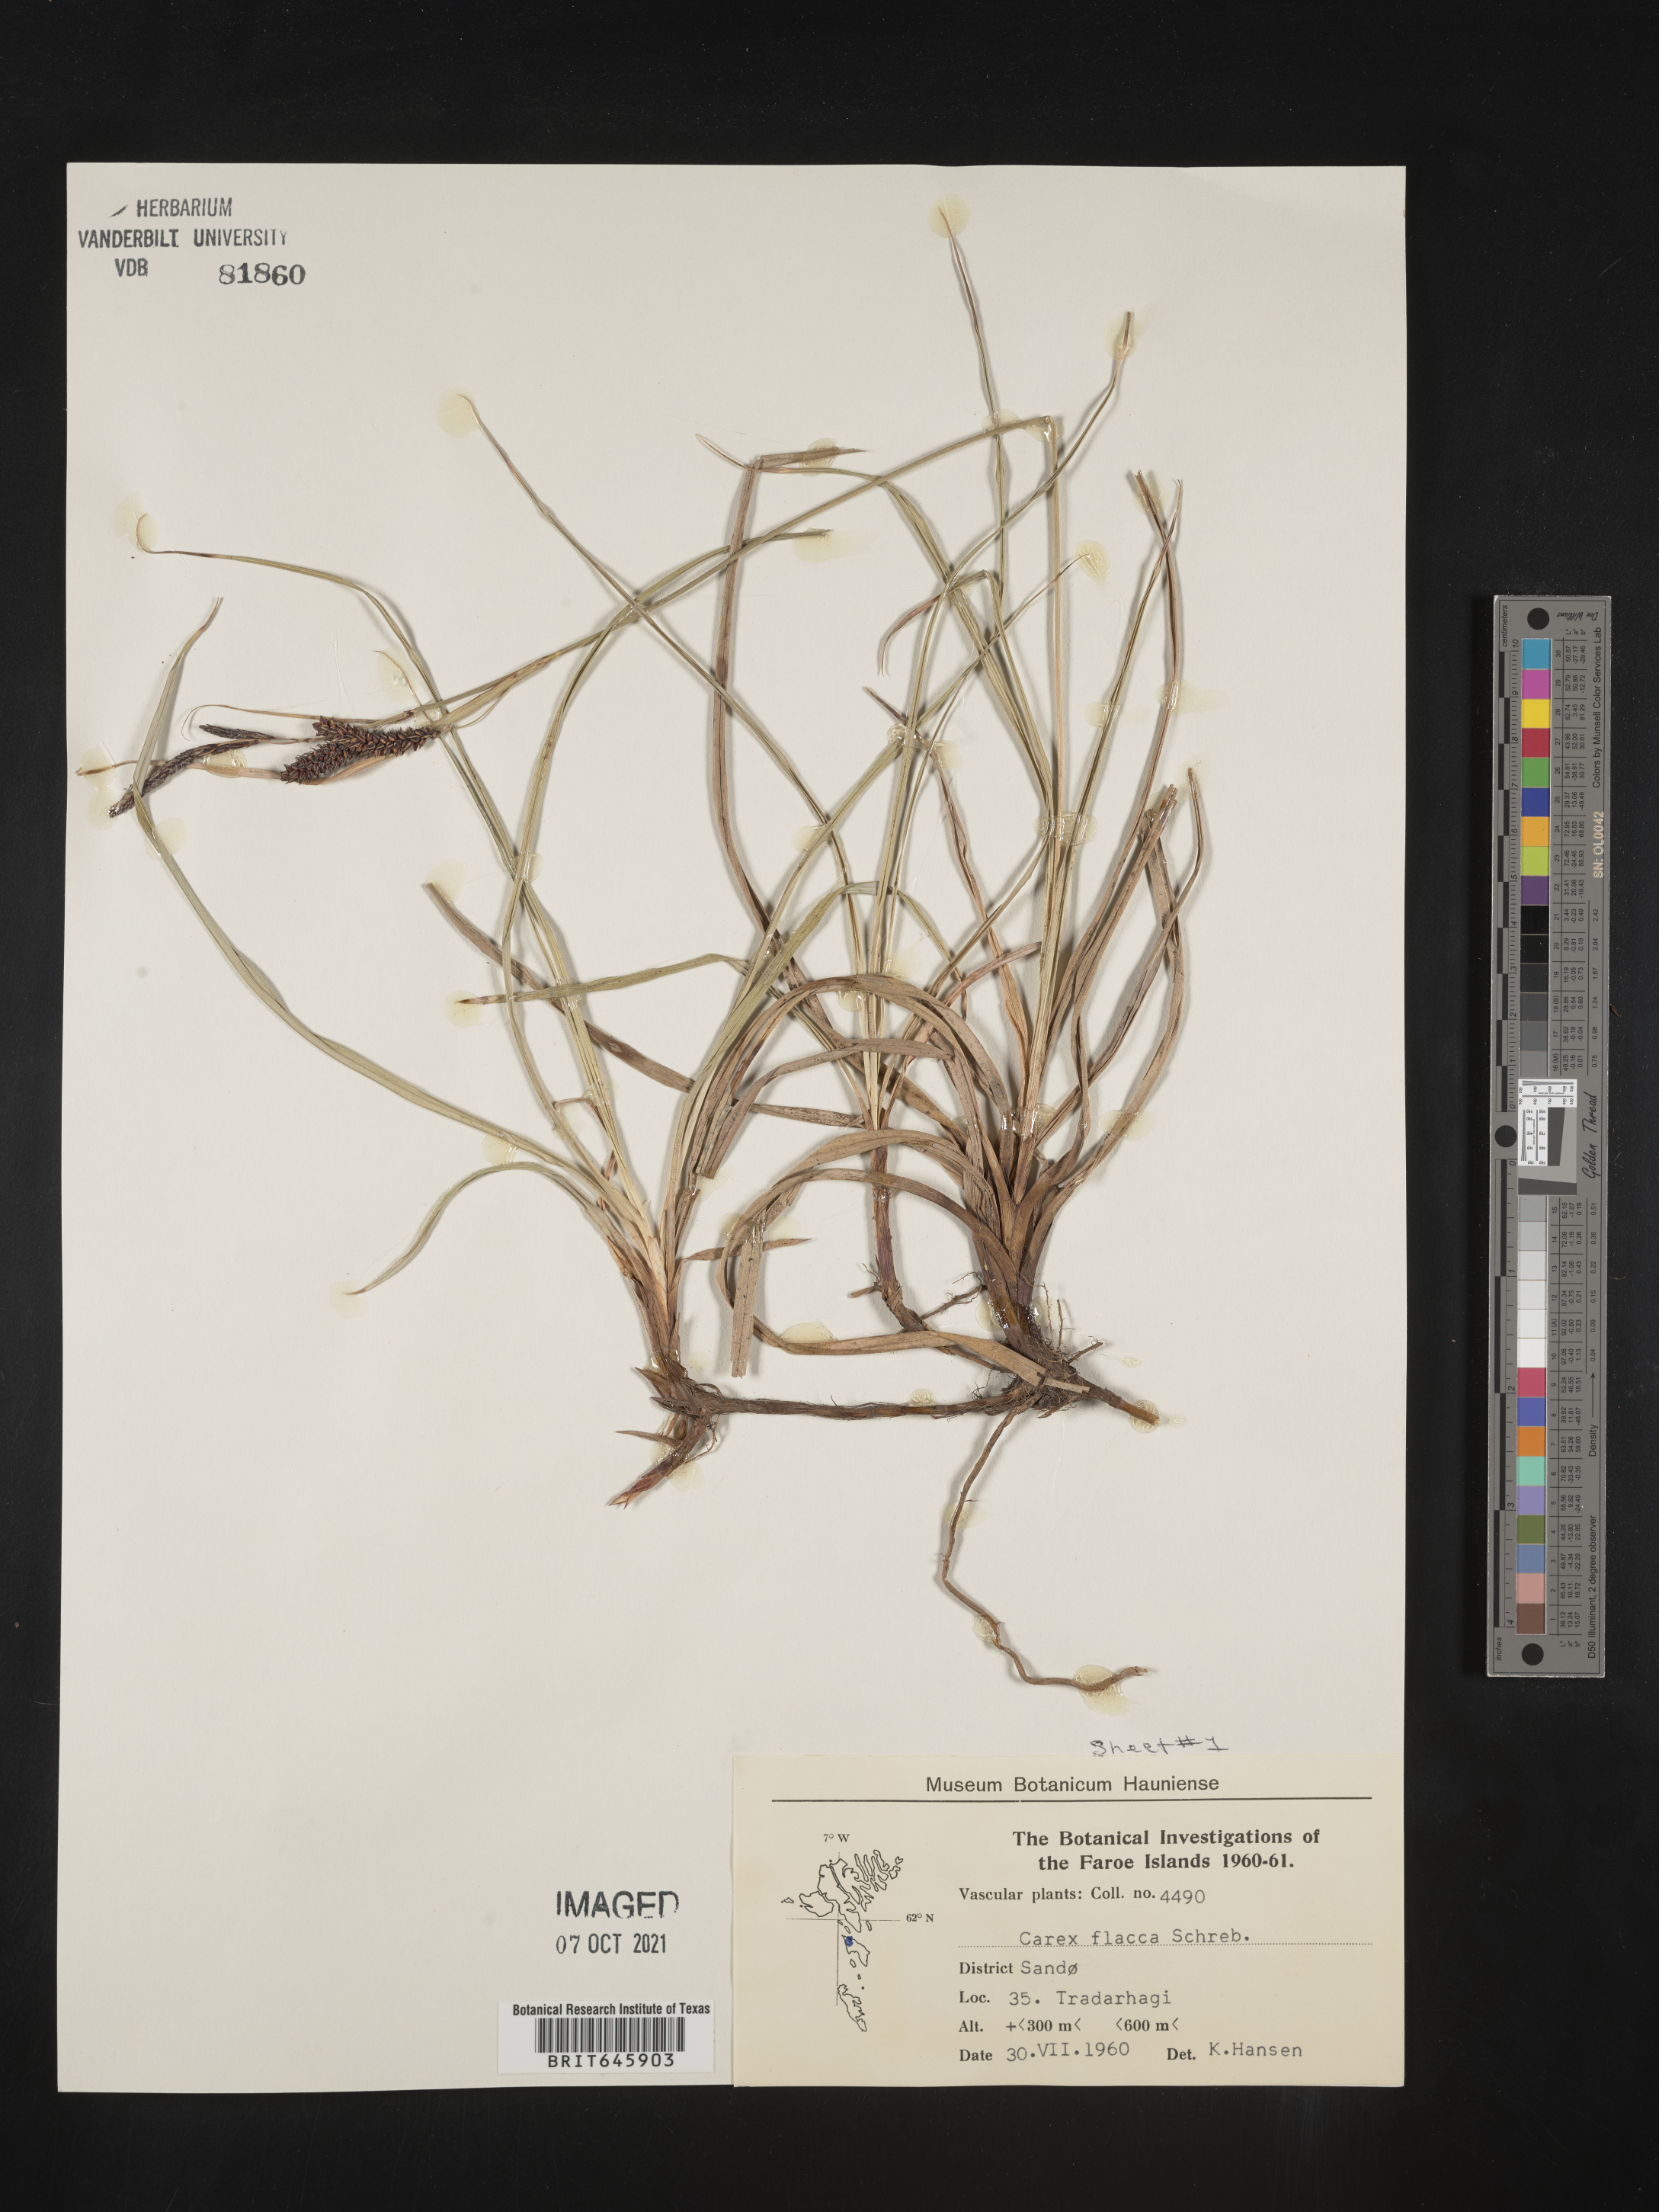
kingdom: Plantae
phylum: Tracheophyta
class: Liliopsida
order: Poales
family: Cyperaceae
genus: Carex
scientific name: Carex flacca
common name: Glaucous sedge
